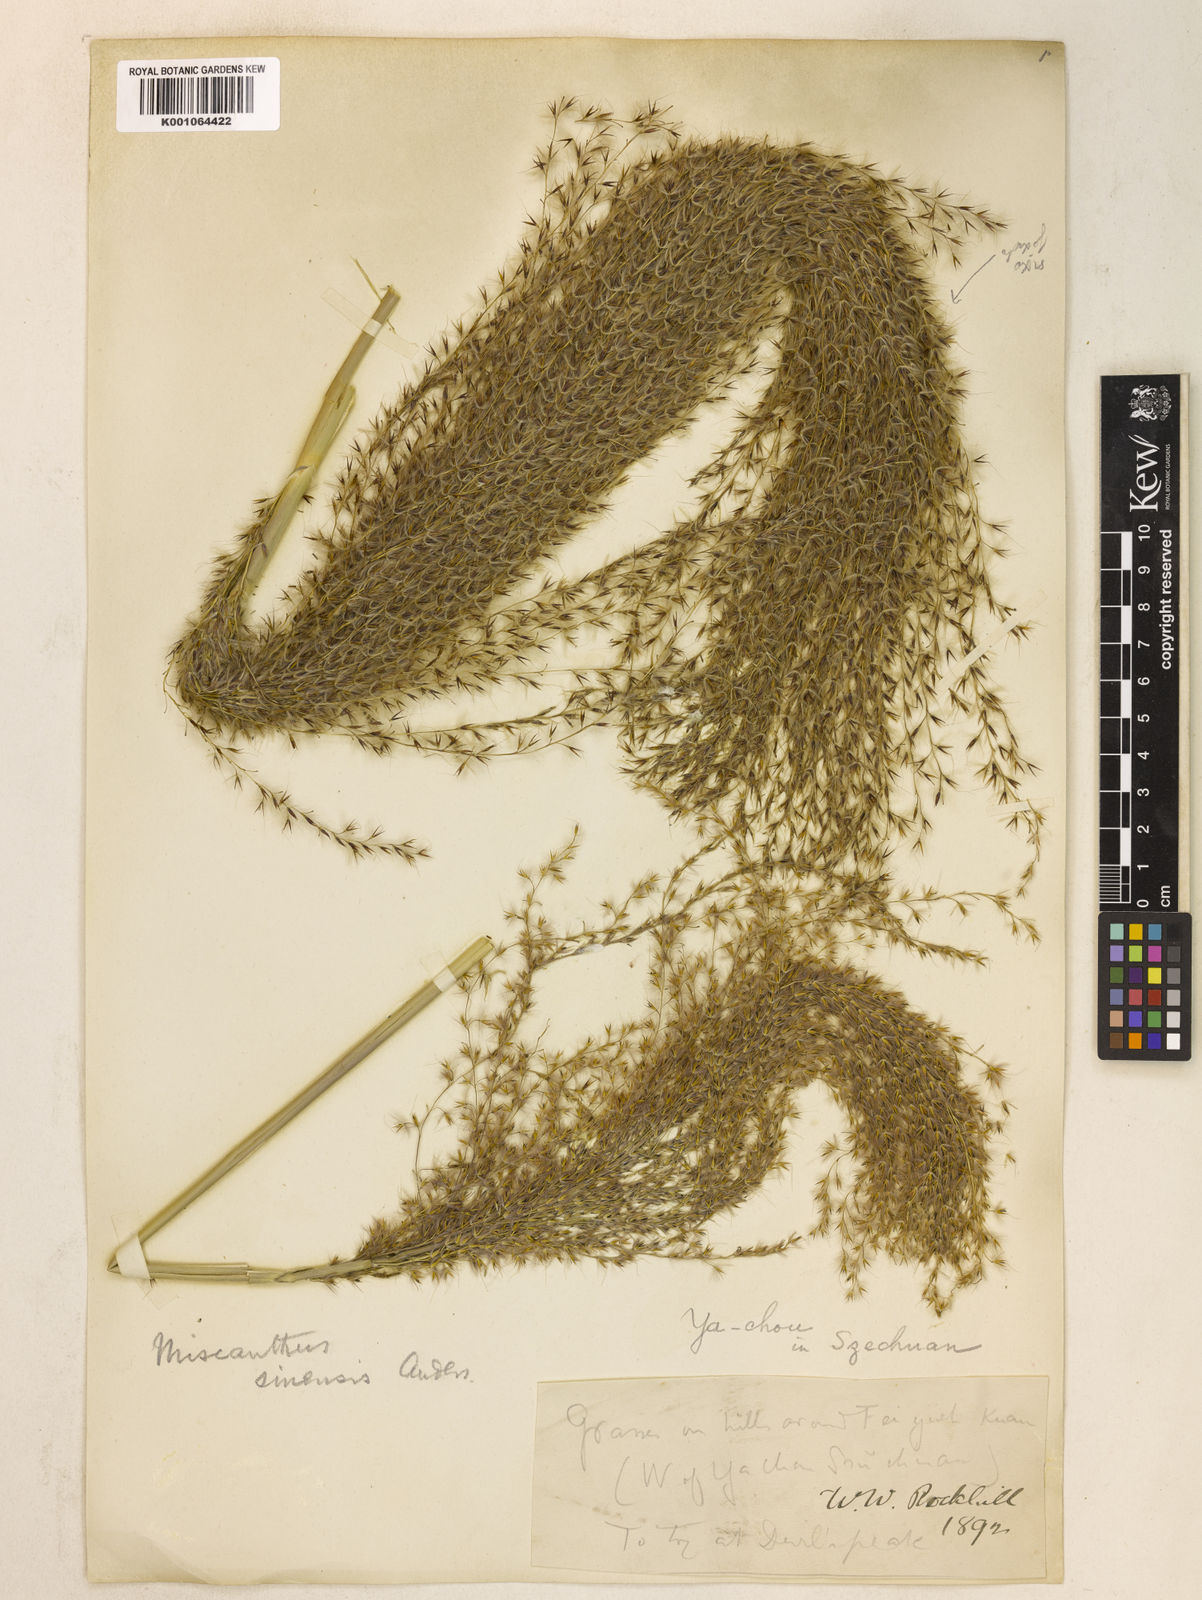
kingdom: Plantae
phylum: Tracheophyta
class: Liliopsida
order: Poales
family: Poaceae
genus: Miscanthus
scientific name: Miscanthus sinensis
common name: Chinese silvergrass
